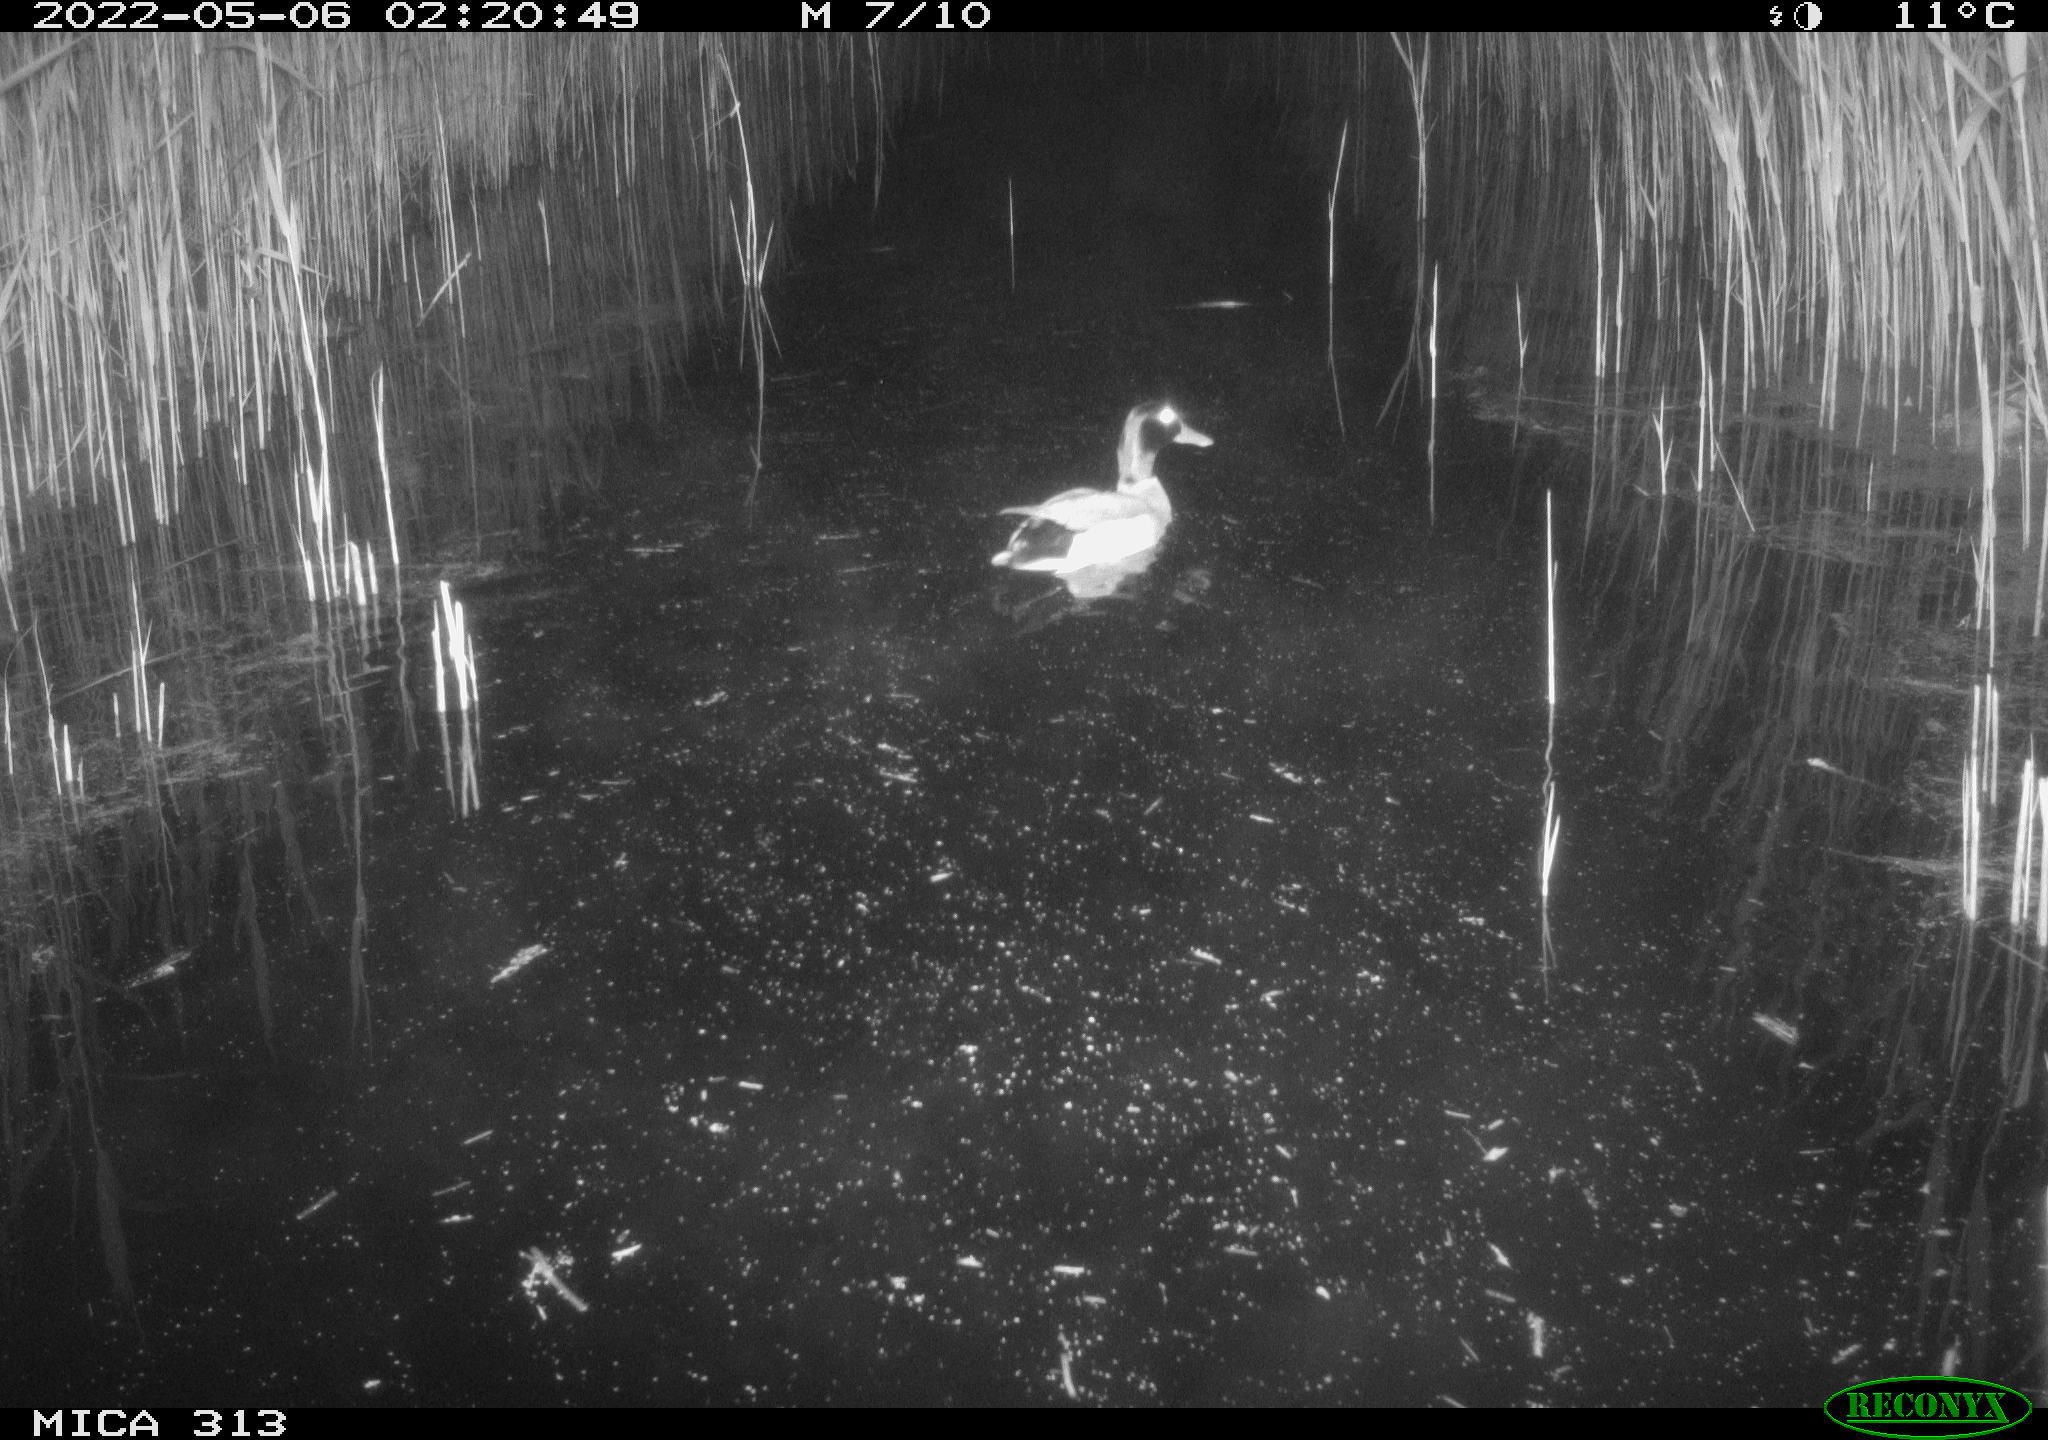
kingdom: Animalia
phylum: Chordata
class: Aves
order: Anseriformes
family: Anatidae
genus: Anas
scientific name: Anas platyrhynchos
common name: Mallard
